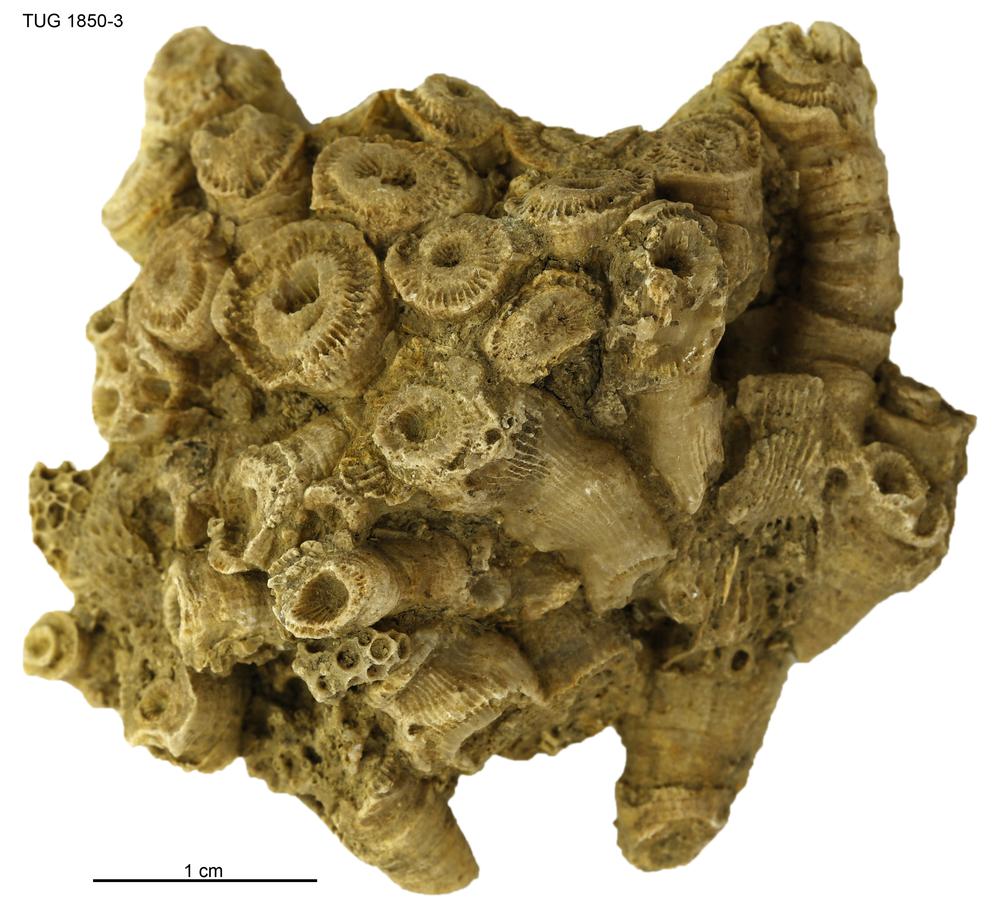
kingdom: Animalia
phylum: Cnidaria
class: Anthozoa
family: Entelophyllidae
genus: Entelophyllum
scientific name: Entelophyllum
